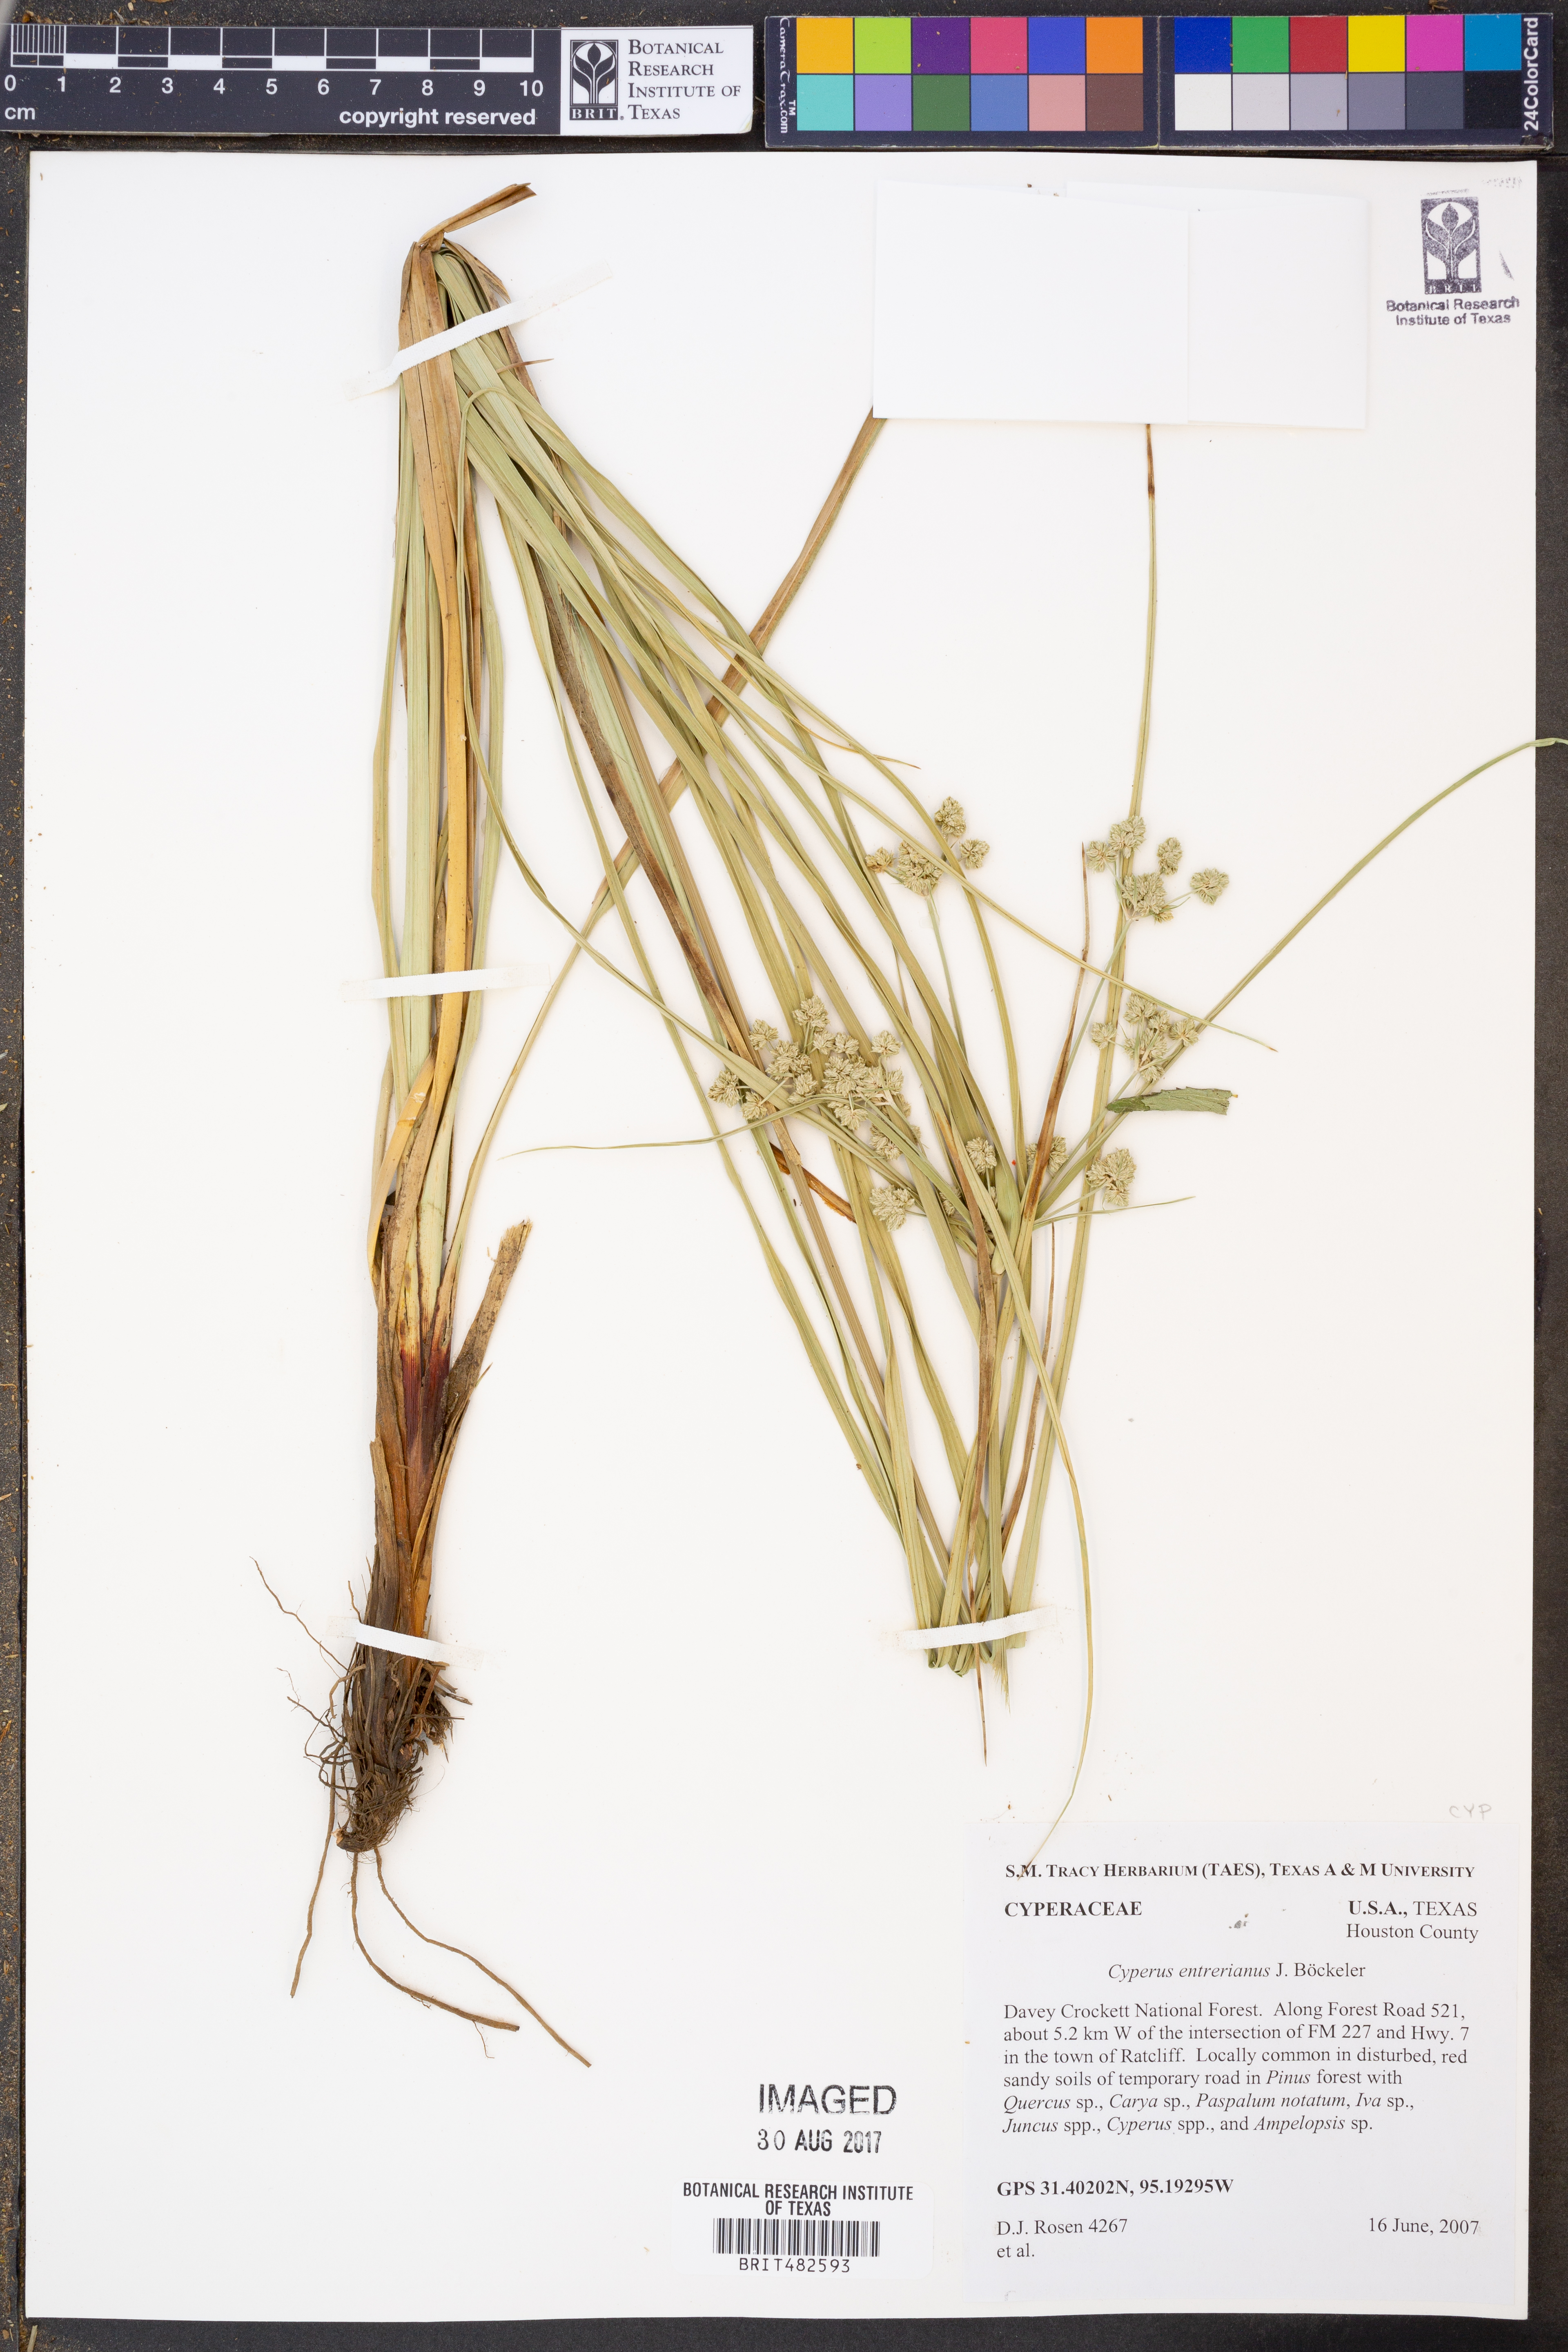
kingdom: Plantae
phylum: Tracheophyta
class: Liliopsida
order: Poales
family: Cyperaceae
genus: Cyperus
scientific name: Cyperus entrerianus
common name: Woodrush flatsedge
